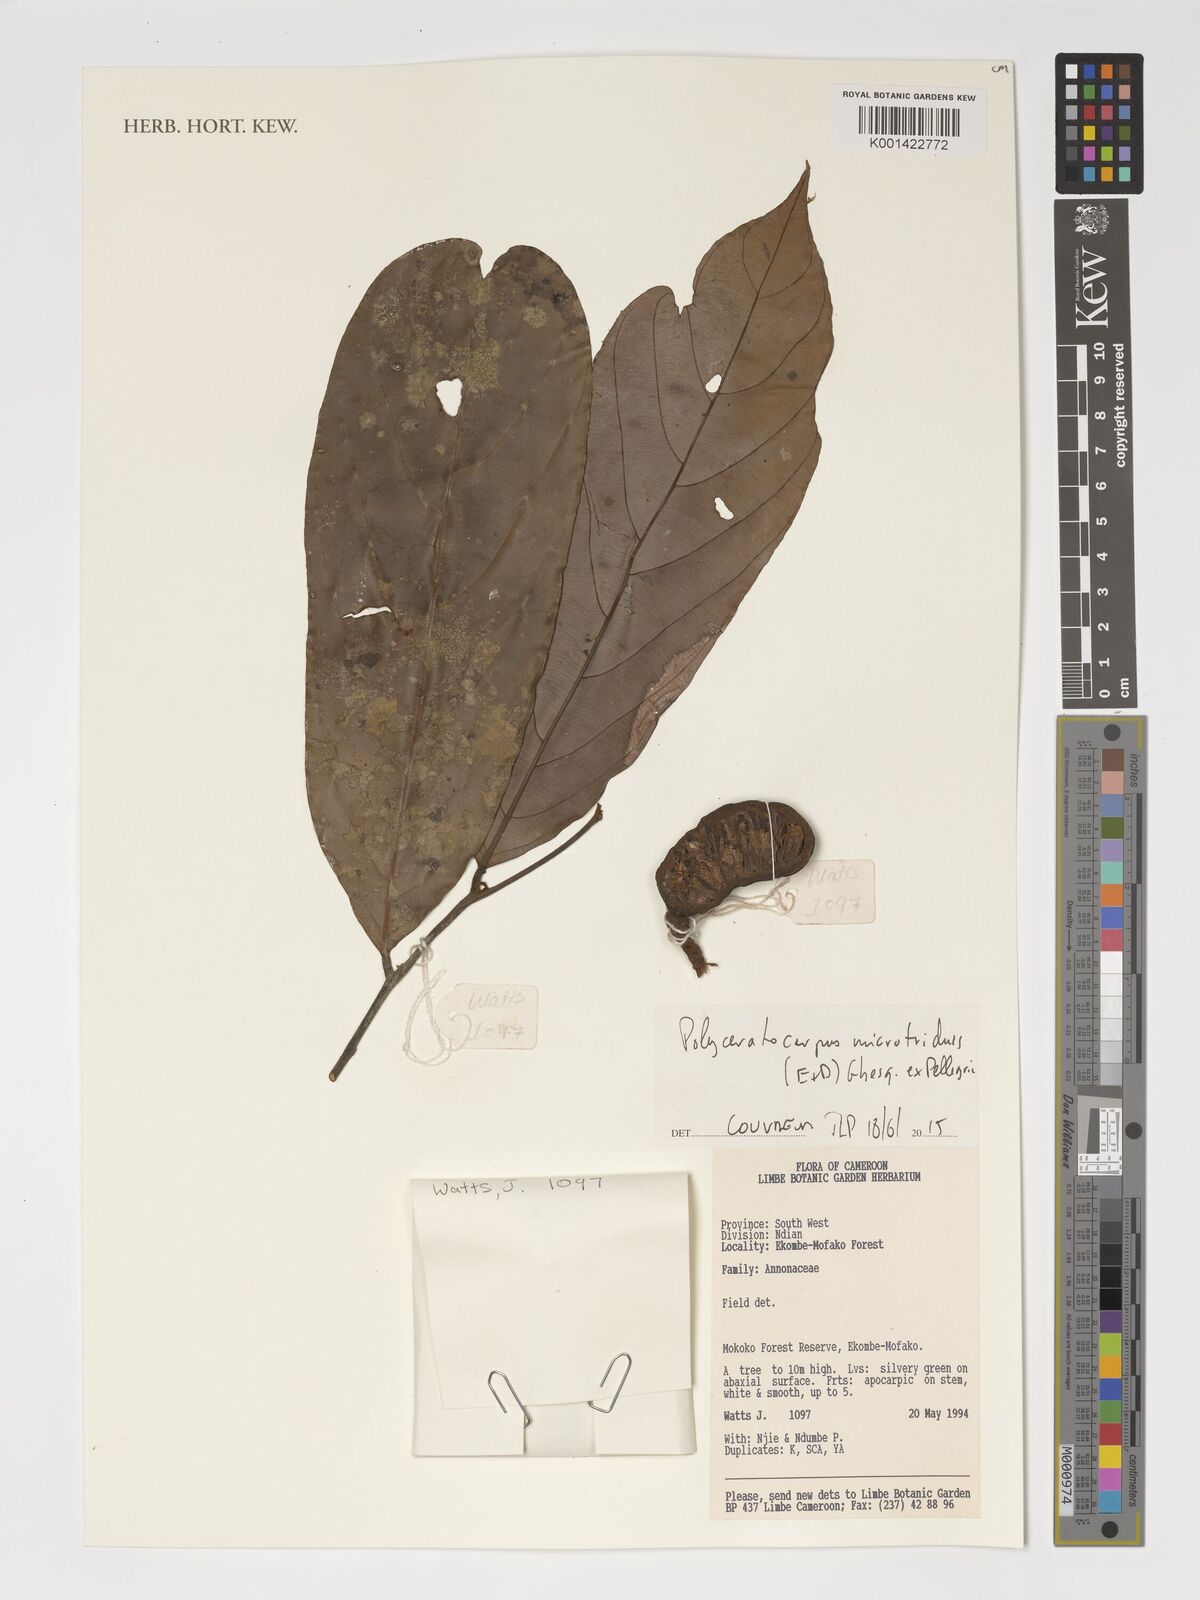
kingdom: Plantae
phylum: Tracheophyta
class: Magnoliopsida
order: Magnoliales
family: Annonaceae
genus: Polyceratocarpus
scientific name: Polyceratocarpus microtrichus
